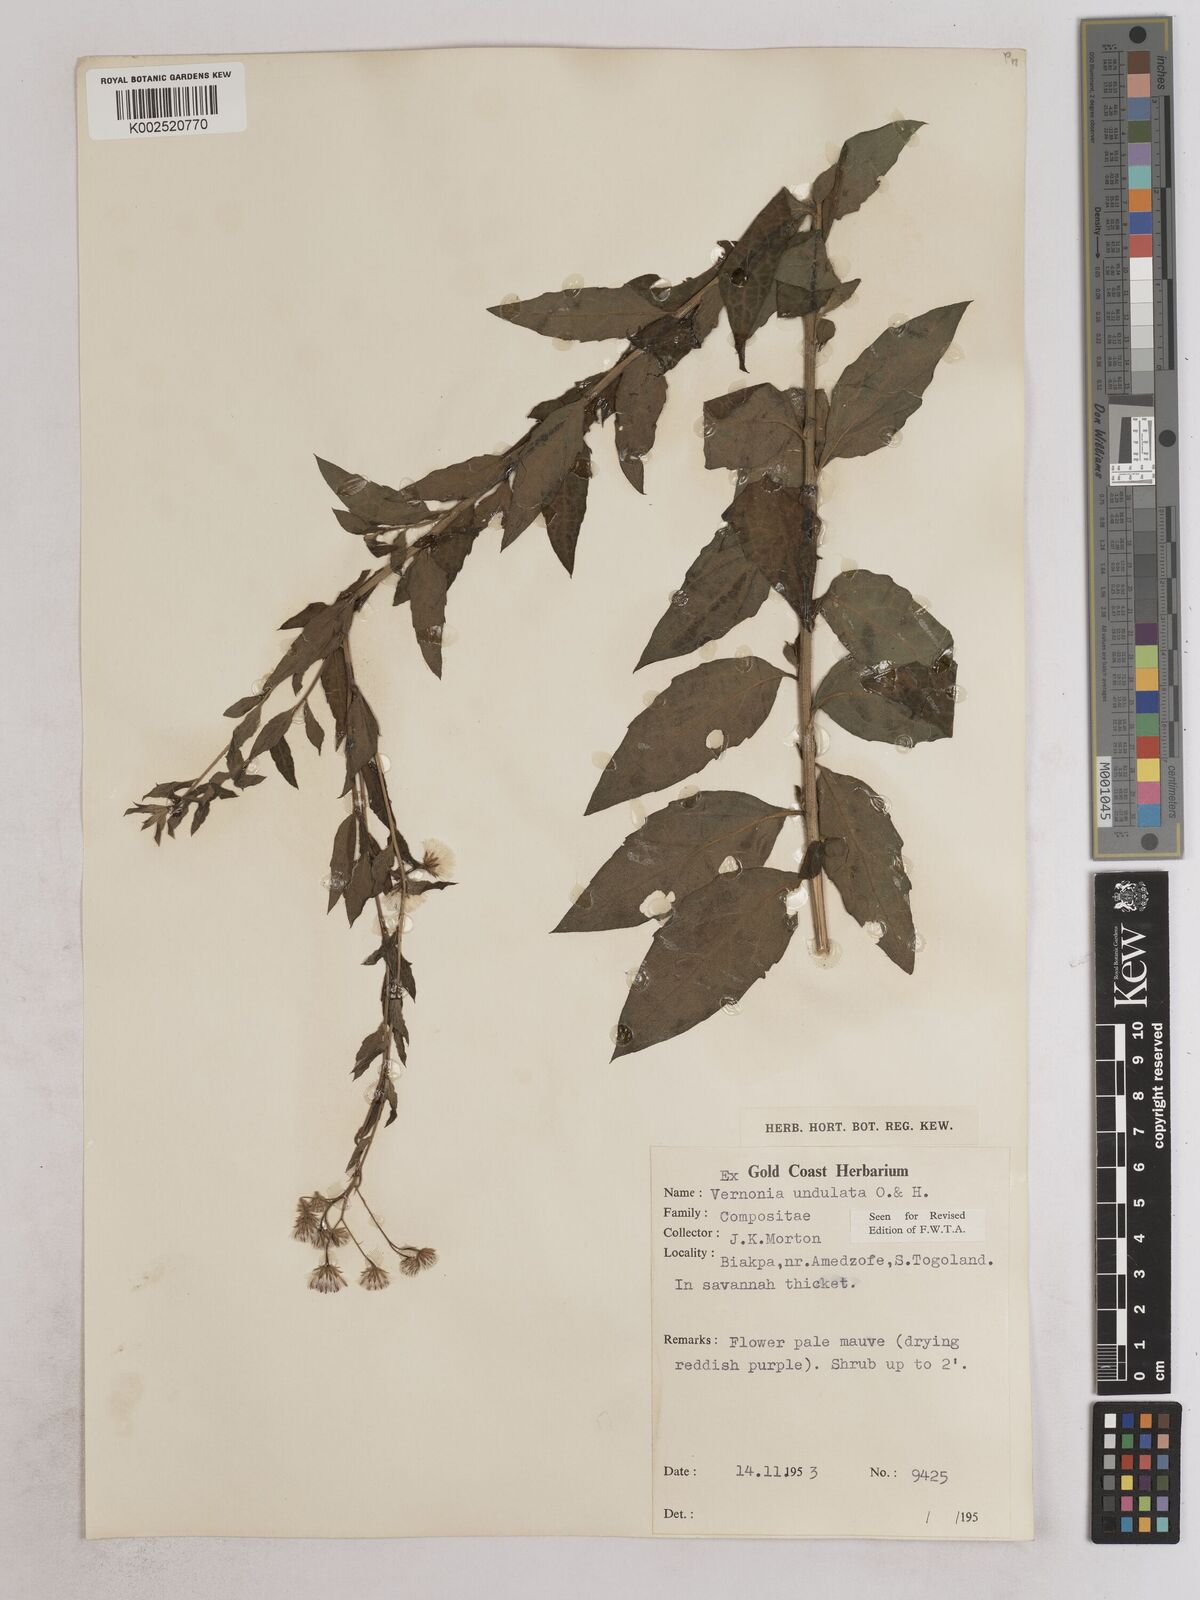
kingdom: Plantae
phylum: Tracheophyta
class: Magnoliopsida
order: Asterales
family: Asteraceae
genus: Vernonia
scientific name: Vernonia golungensis
